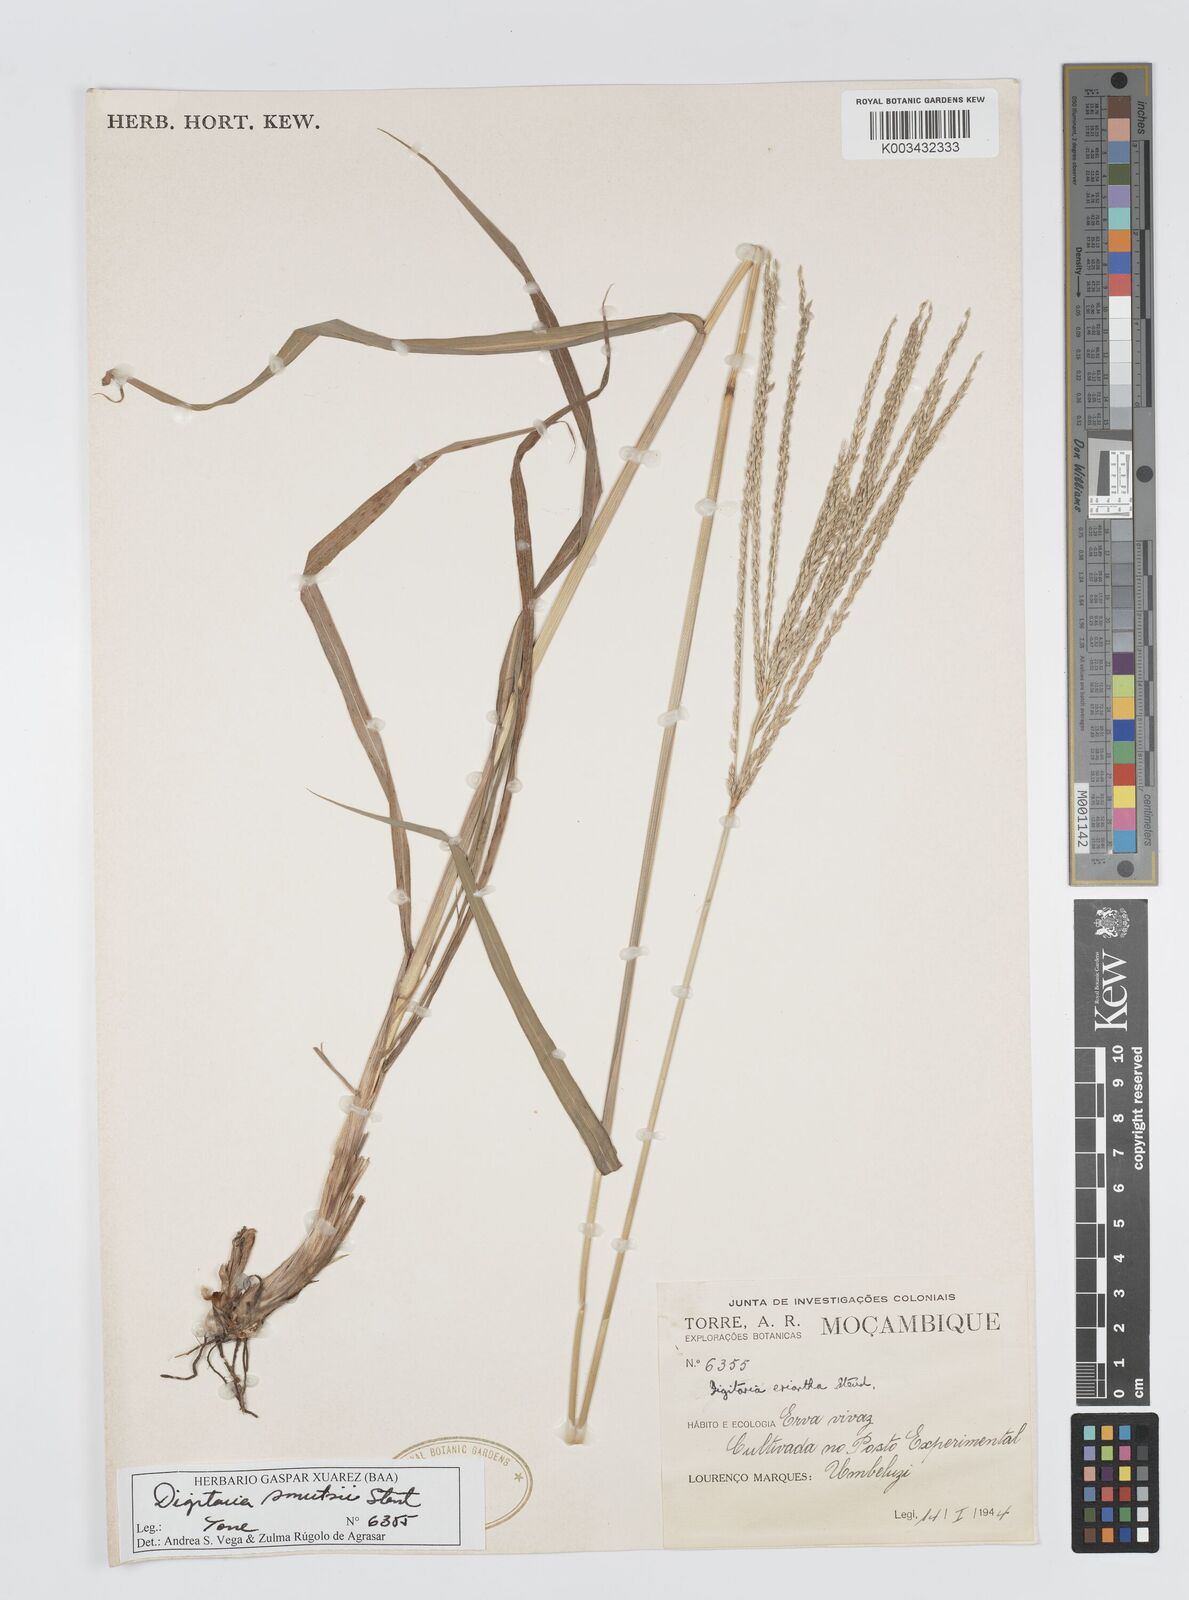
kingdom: Plantae
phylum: Tracheophyta
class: Liliopsida
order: Poales
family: Poaceae
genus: Digitaria
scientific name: Digitaria eriantha
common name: Digitgrass
